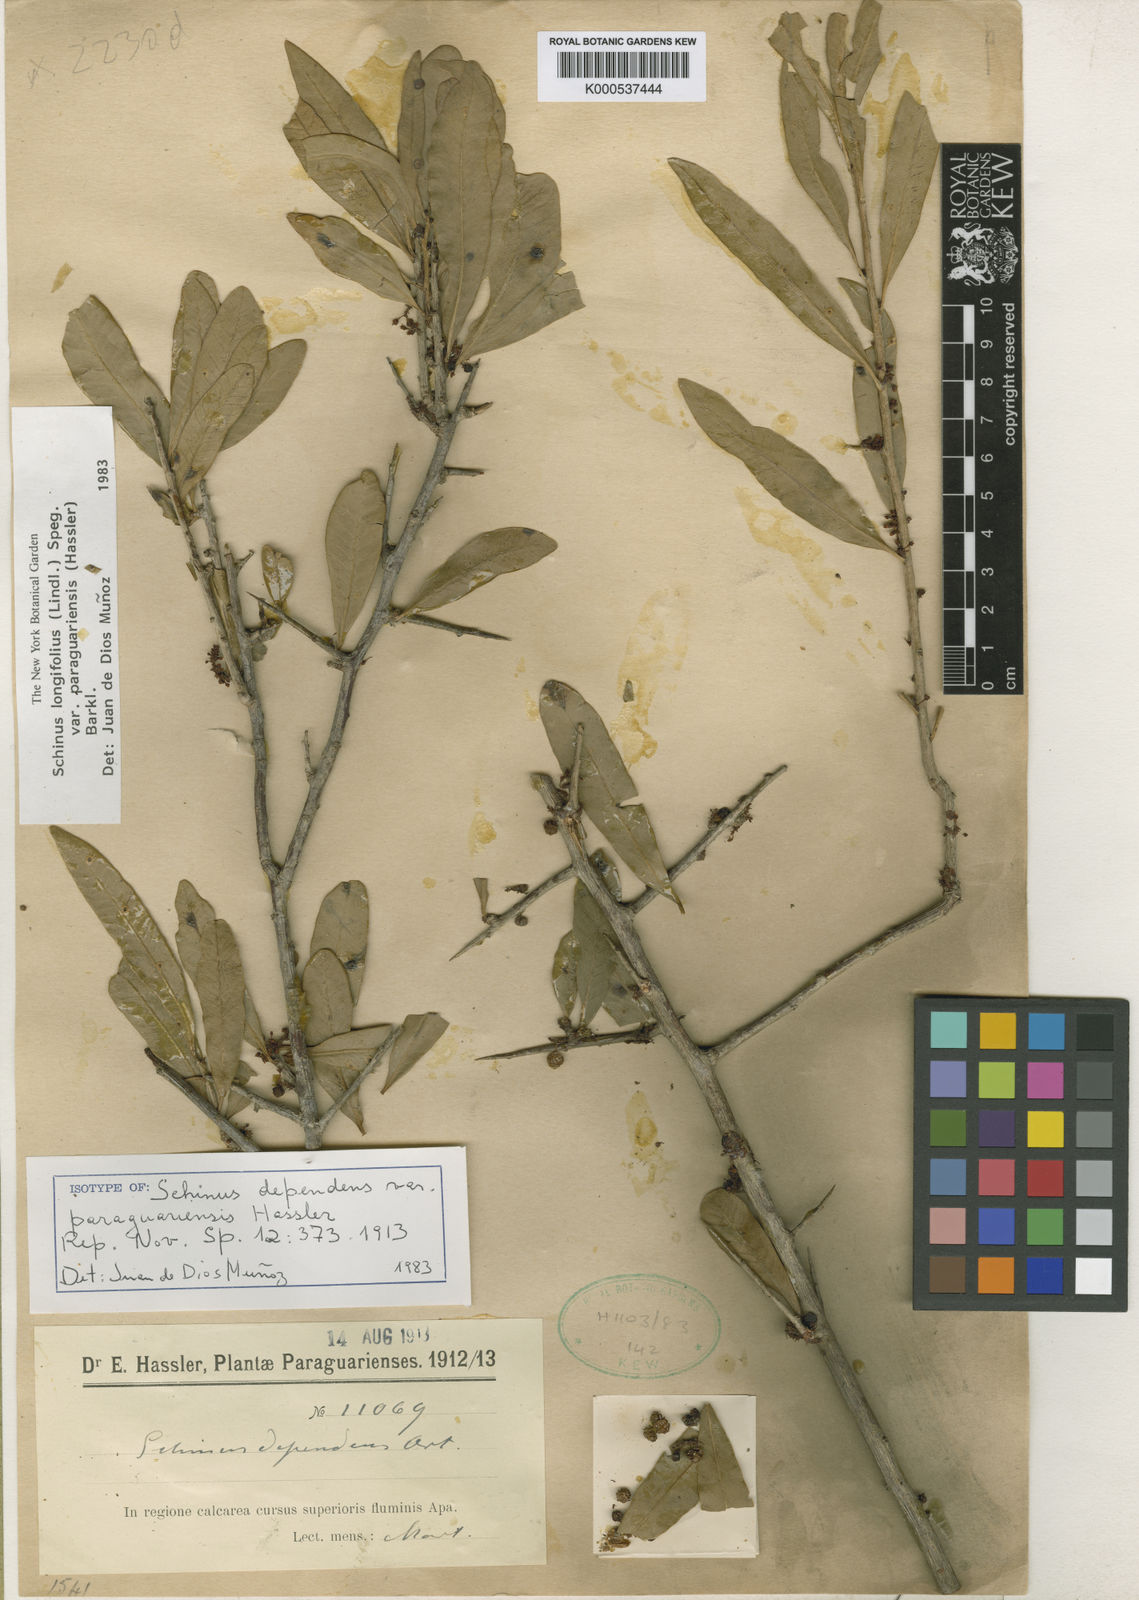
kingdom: Plantae
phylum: Tracheophyta
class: Magnoliopsida
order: Sapindales
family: Anacardiaceae
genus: Schinus
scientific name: Schinus longifolia
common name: Longleaf peppertree
